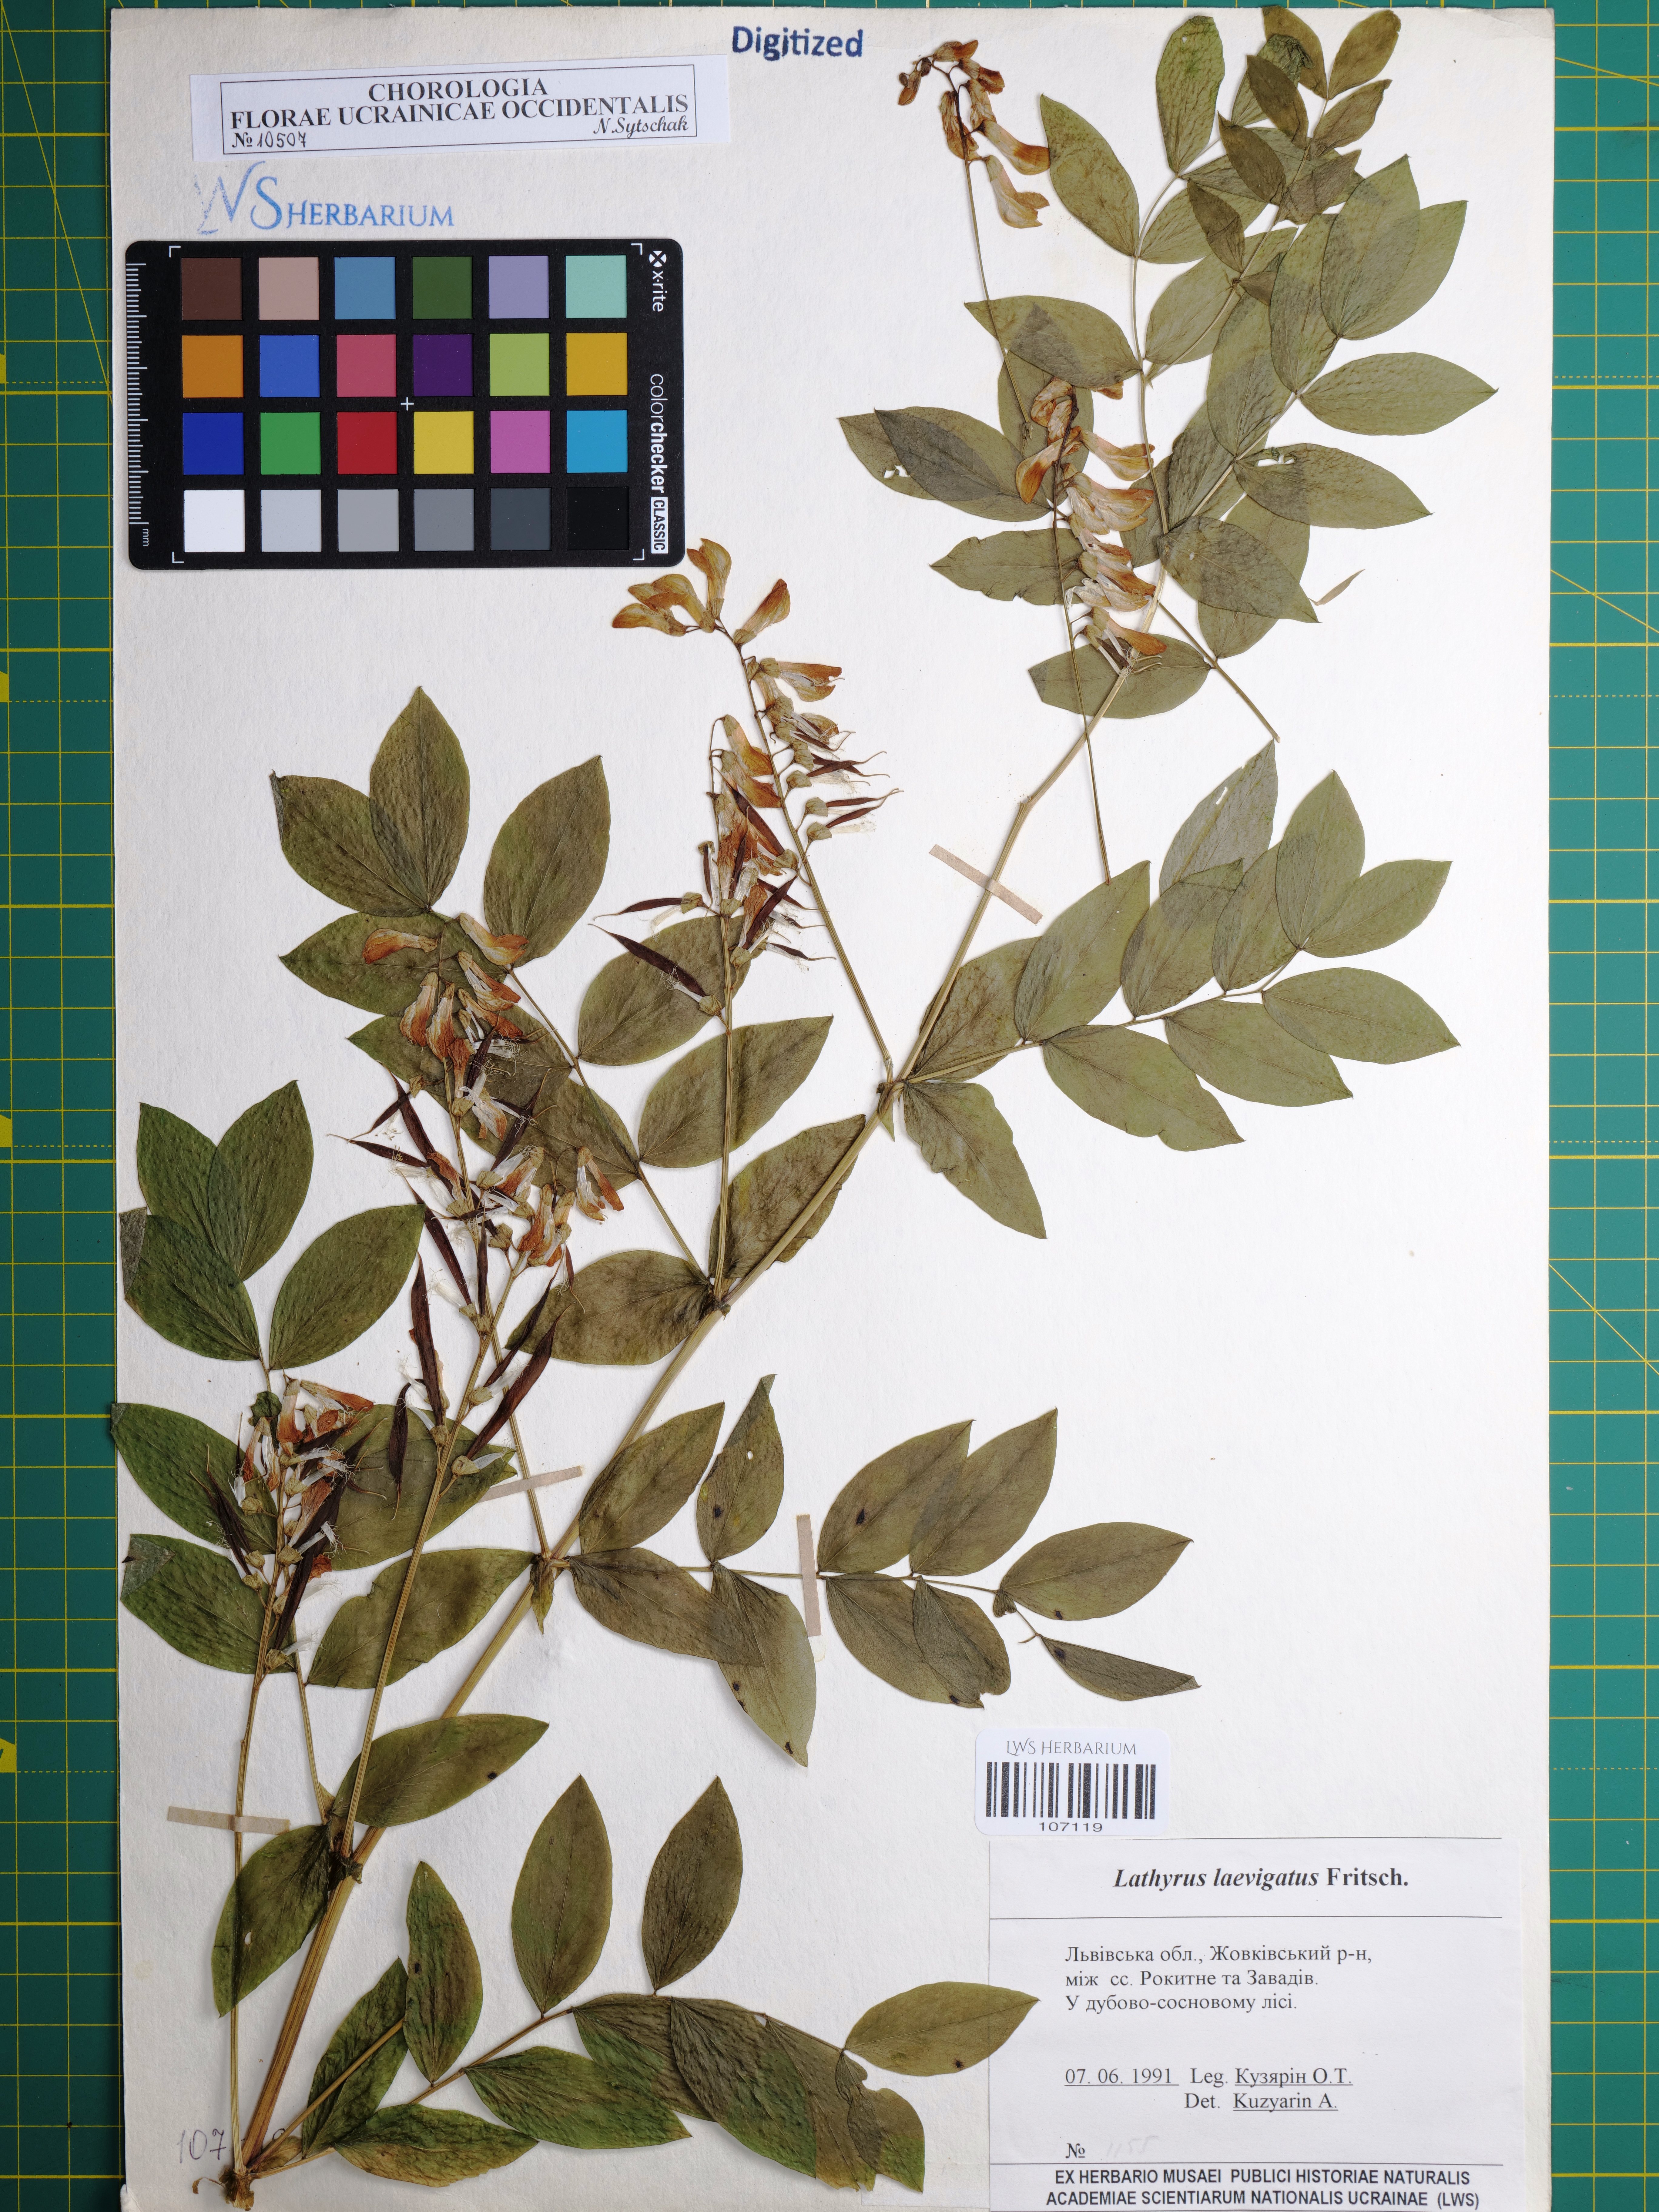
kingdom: Plantae
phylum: Tracheophyta
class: Magnoliopsida
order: Fabales
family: Fabaceae
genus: Lathyrus
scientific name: Lathyrus laevigatus
